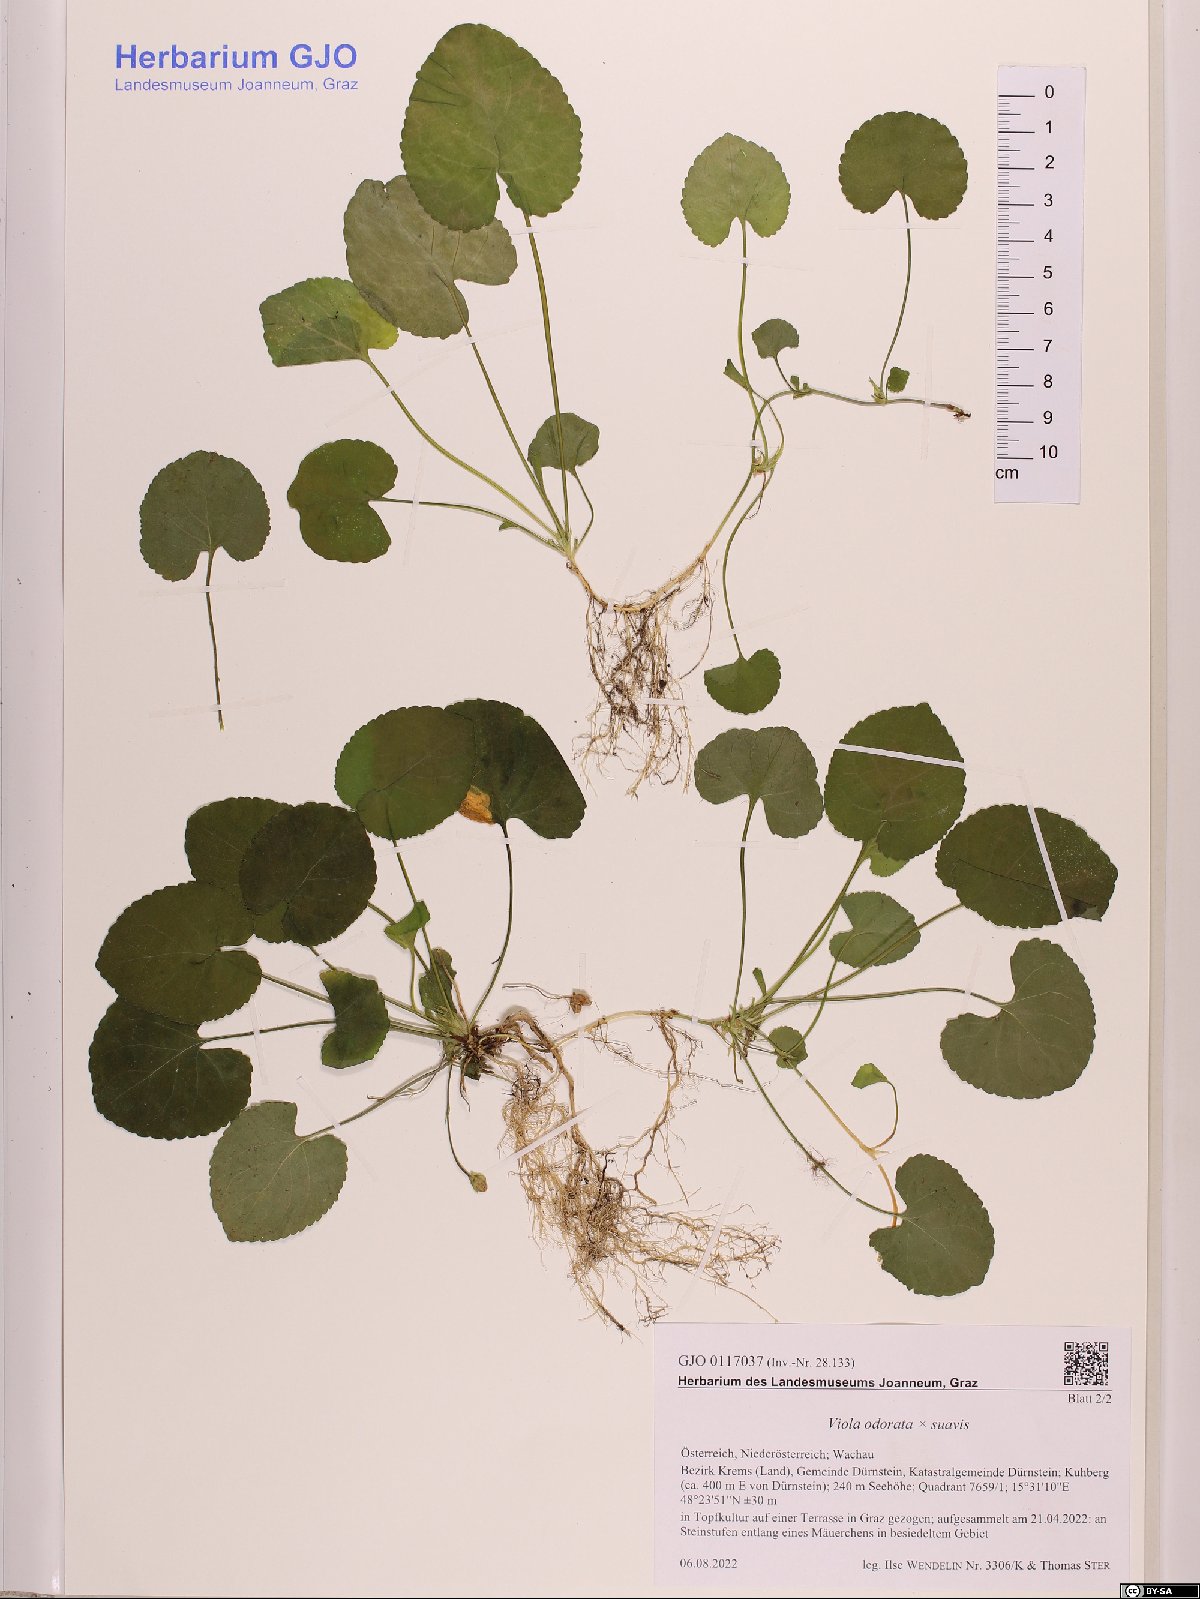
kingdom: Plantae
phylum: Tracheophyta
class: Magnoliopsida
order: Malpighiales
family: Violaceae
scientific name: Violaceae
